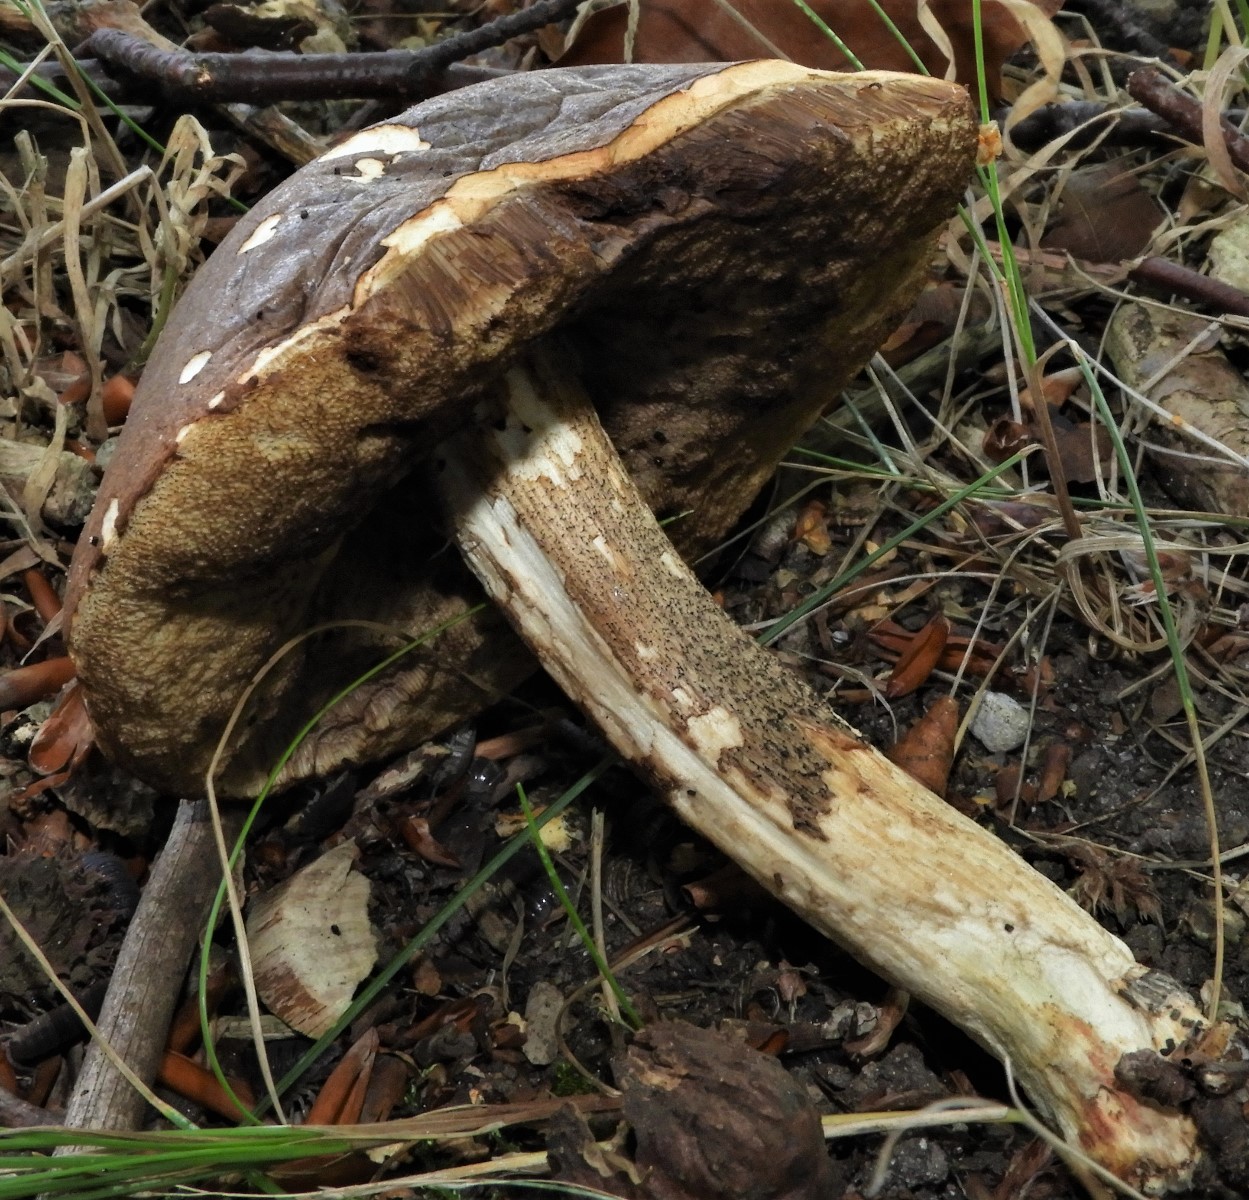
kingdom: Fungi
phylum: Basidiomycota
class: Agaricomycetes
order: Boletales
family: Boletaceae
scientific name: Boletaceae
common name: rørhatfamilien
